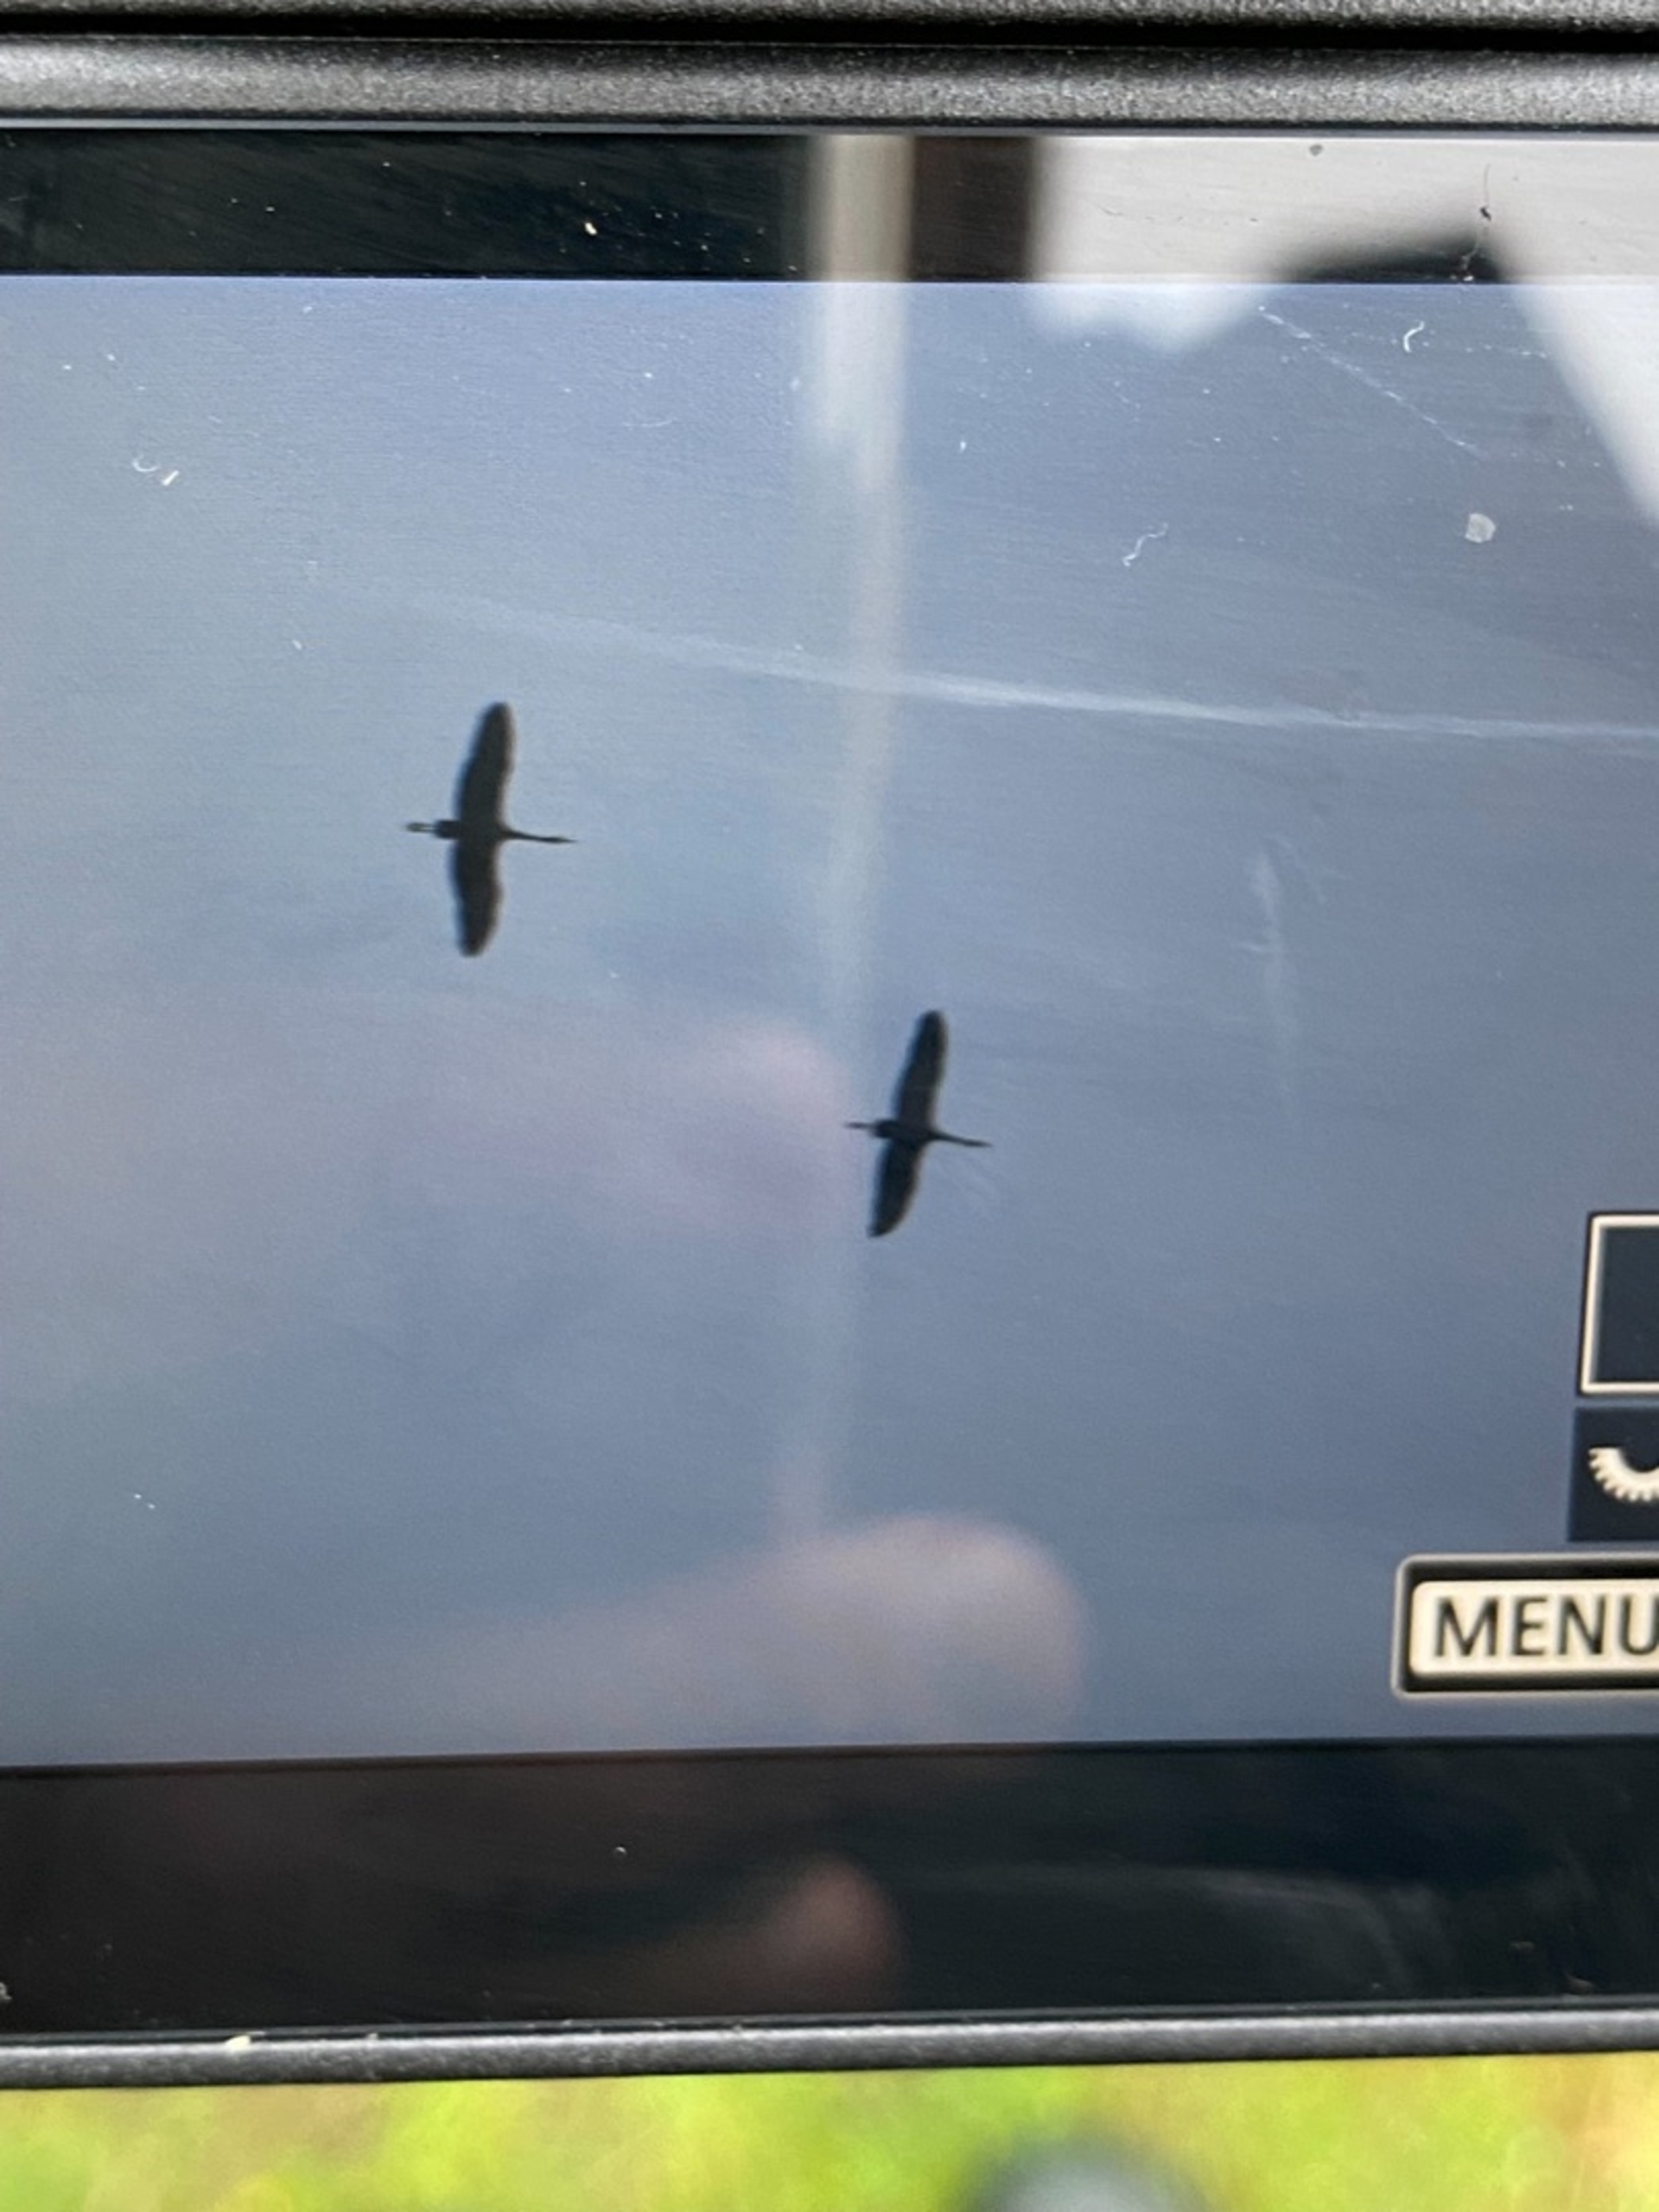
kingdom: Animalia
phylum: Chordata
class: Aves
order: Gruiformes
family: Gruidae
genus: Grus
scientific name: Grus grus
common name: Trane
